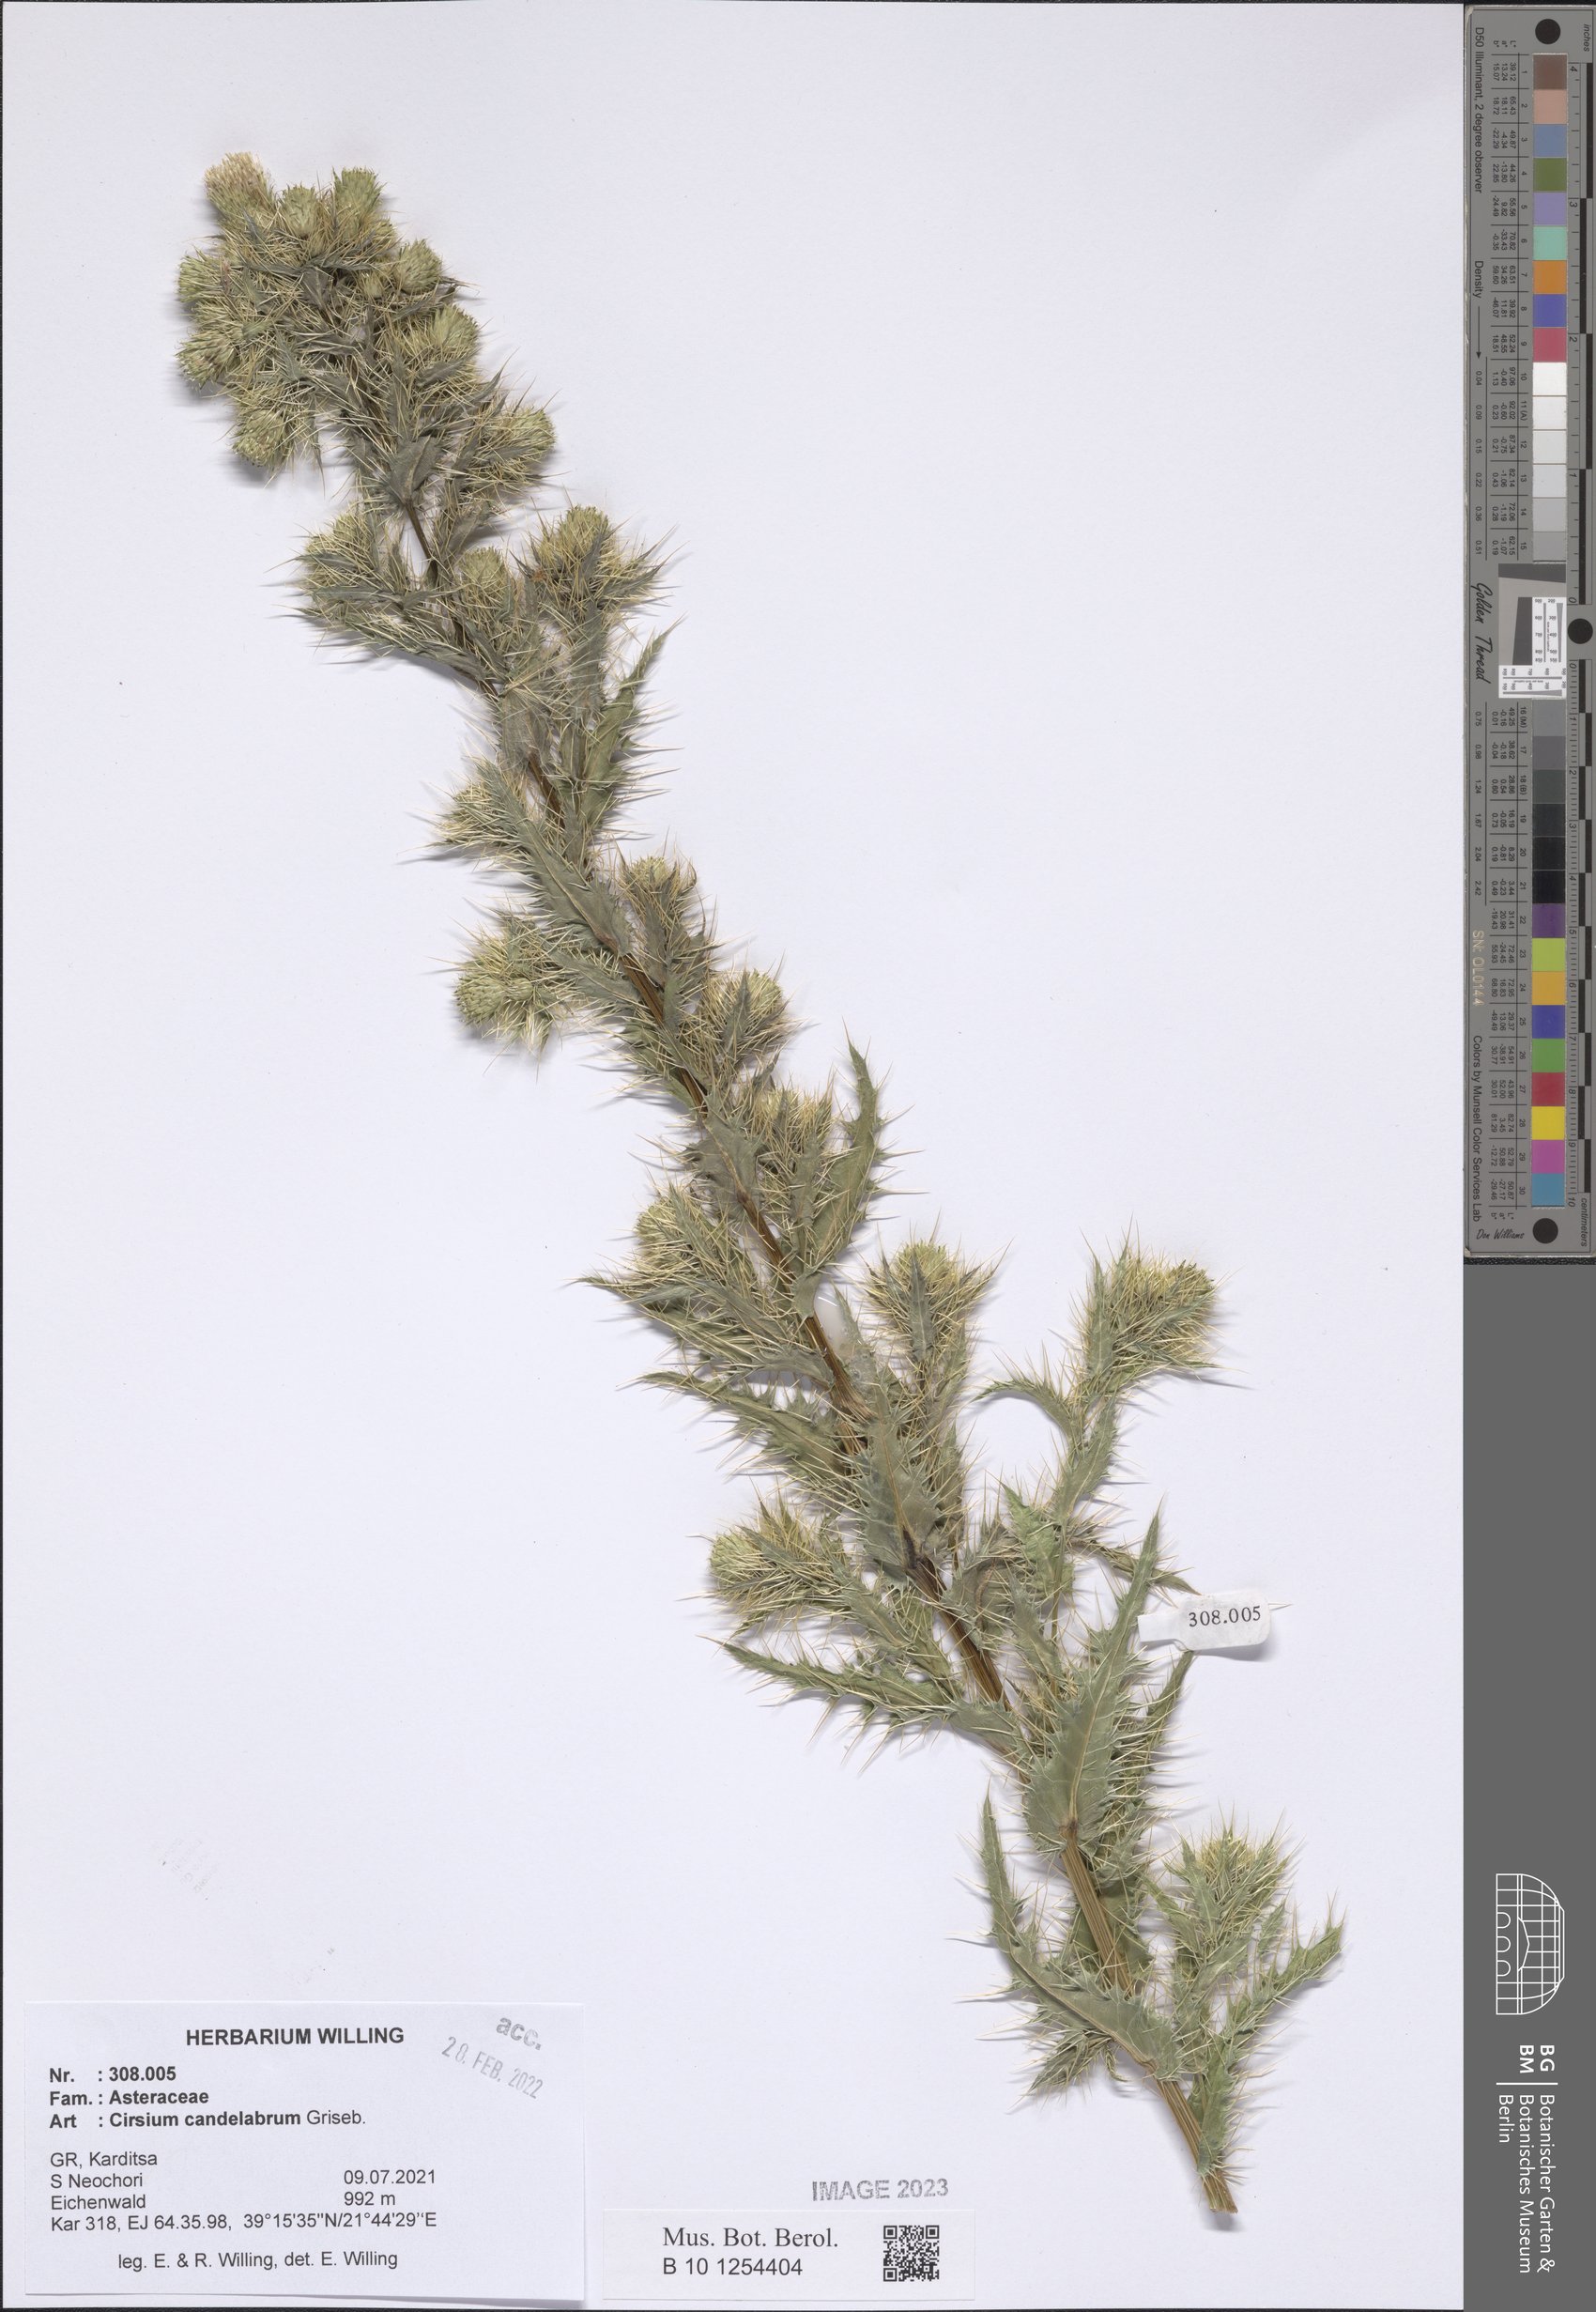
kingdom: Plantae
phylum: Tracheophyta
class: Magnoliopsida
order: Asterales
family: Asteraceae
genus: Cirsium
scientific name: Cirsium candelabrum
